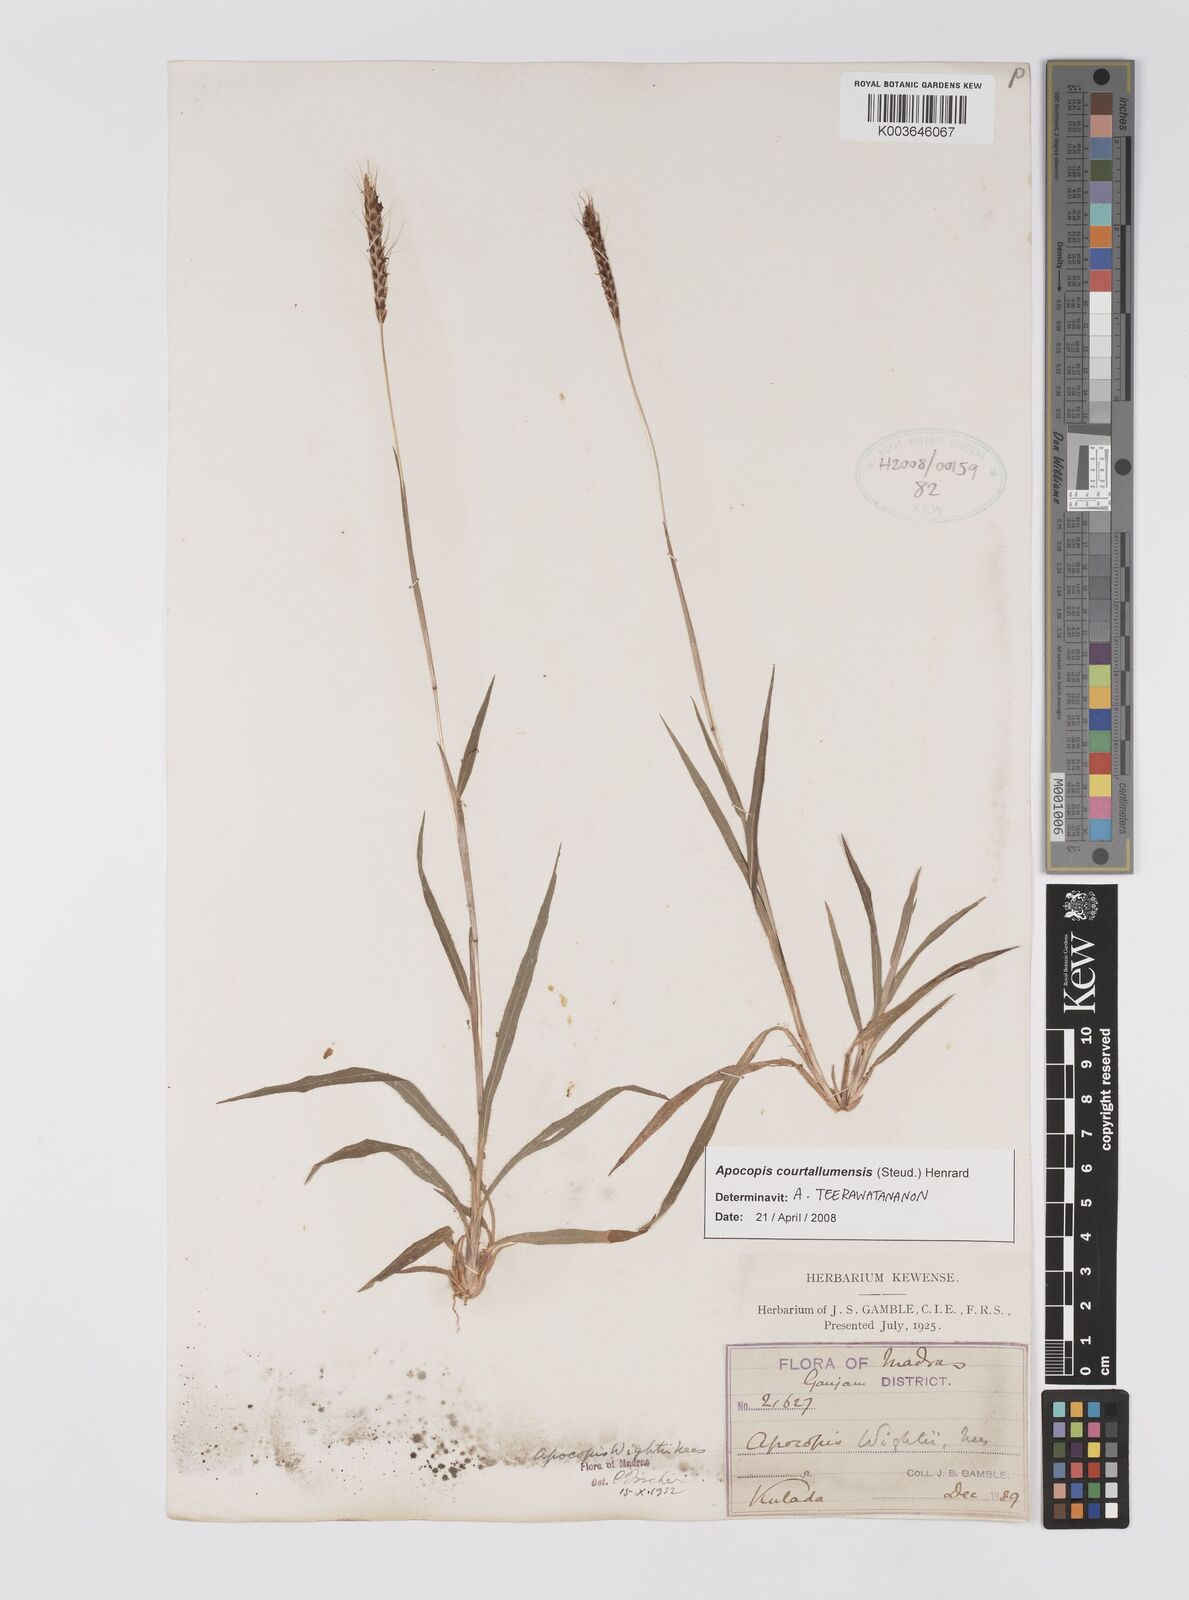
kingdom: Plantae
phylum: Tracheophyta
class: Liliopsida
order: Poales
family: Poaceae
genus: Apocopis
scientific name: Apocopis courtallumensis
